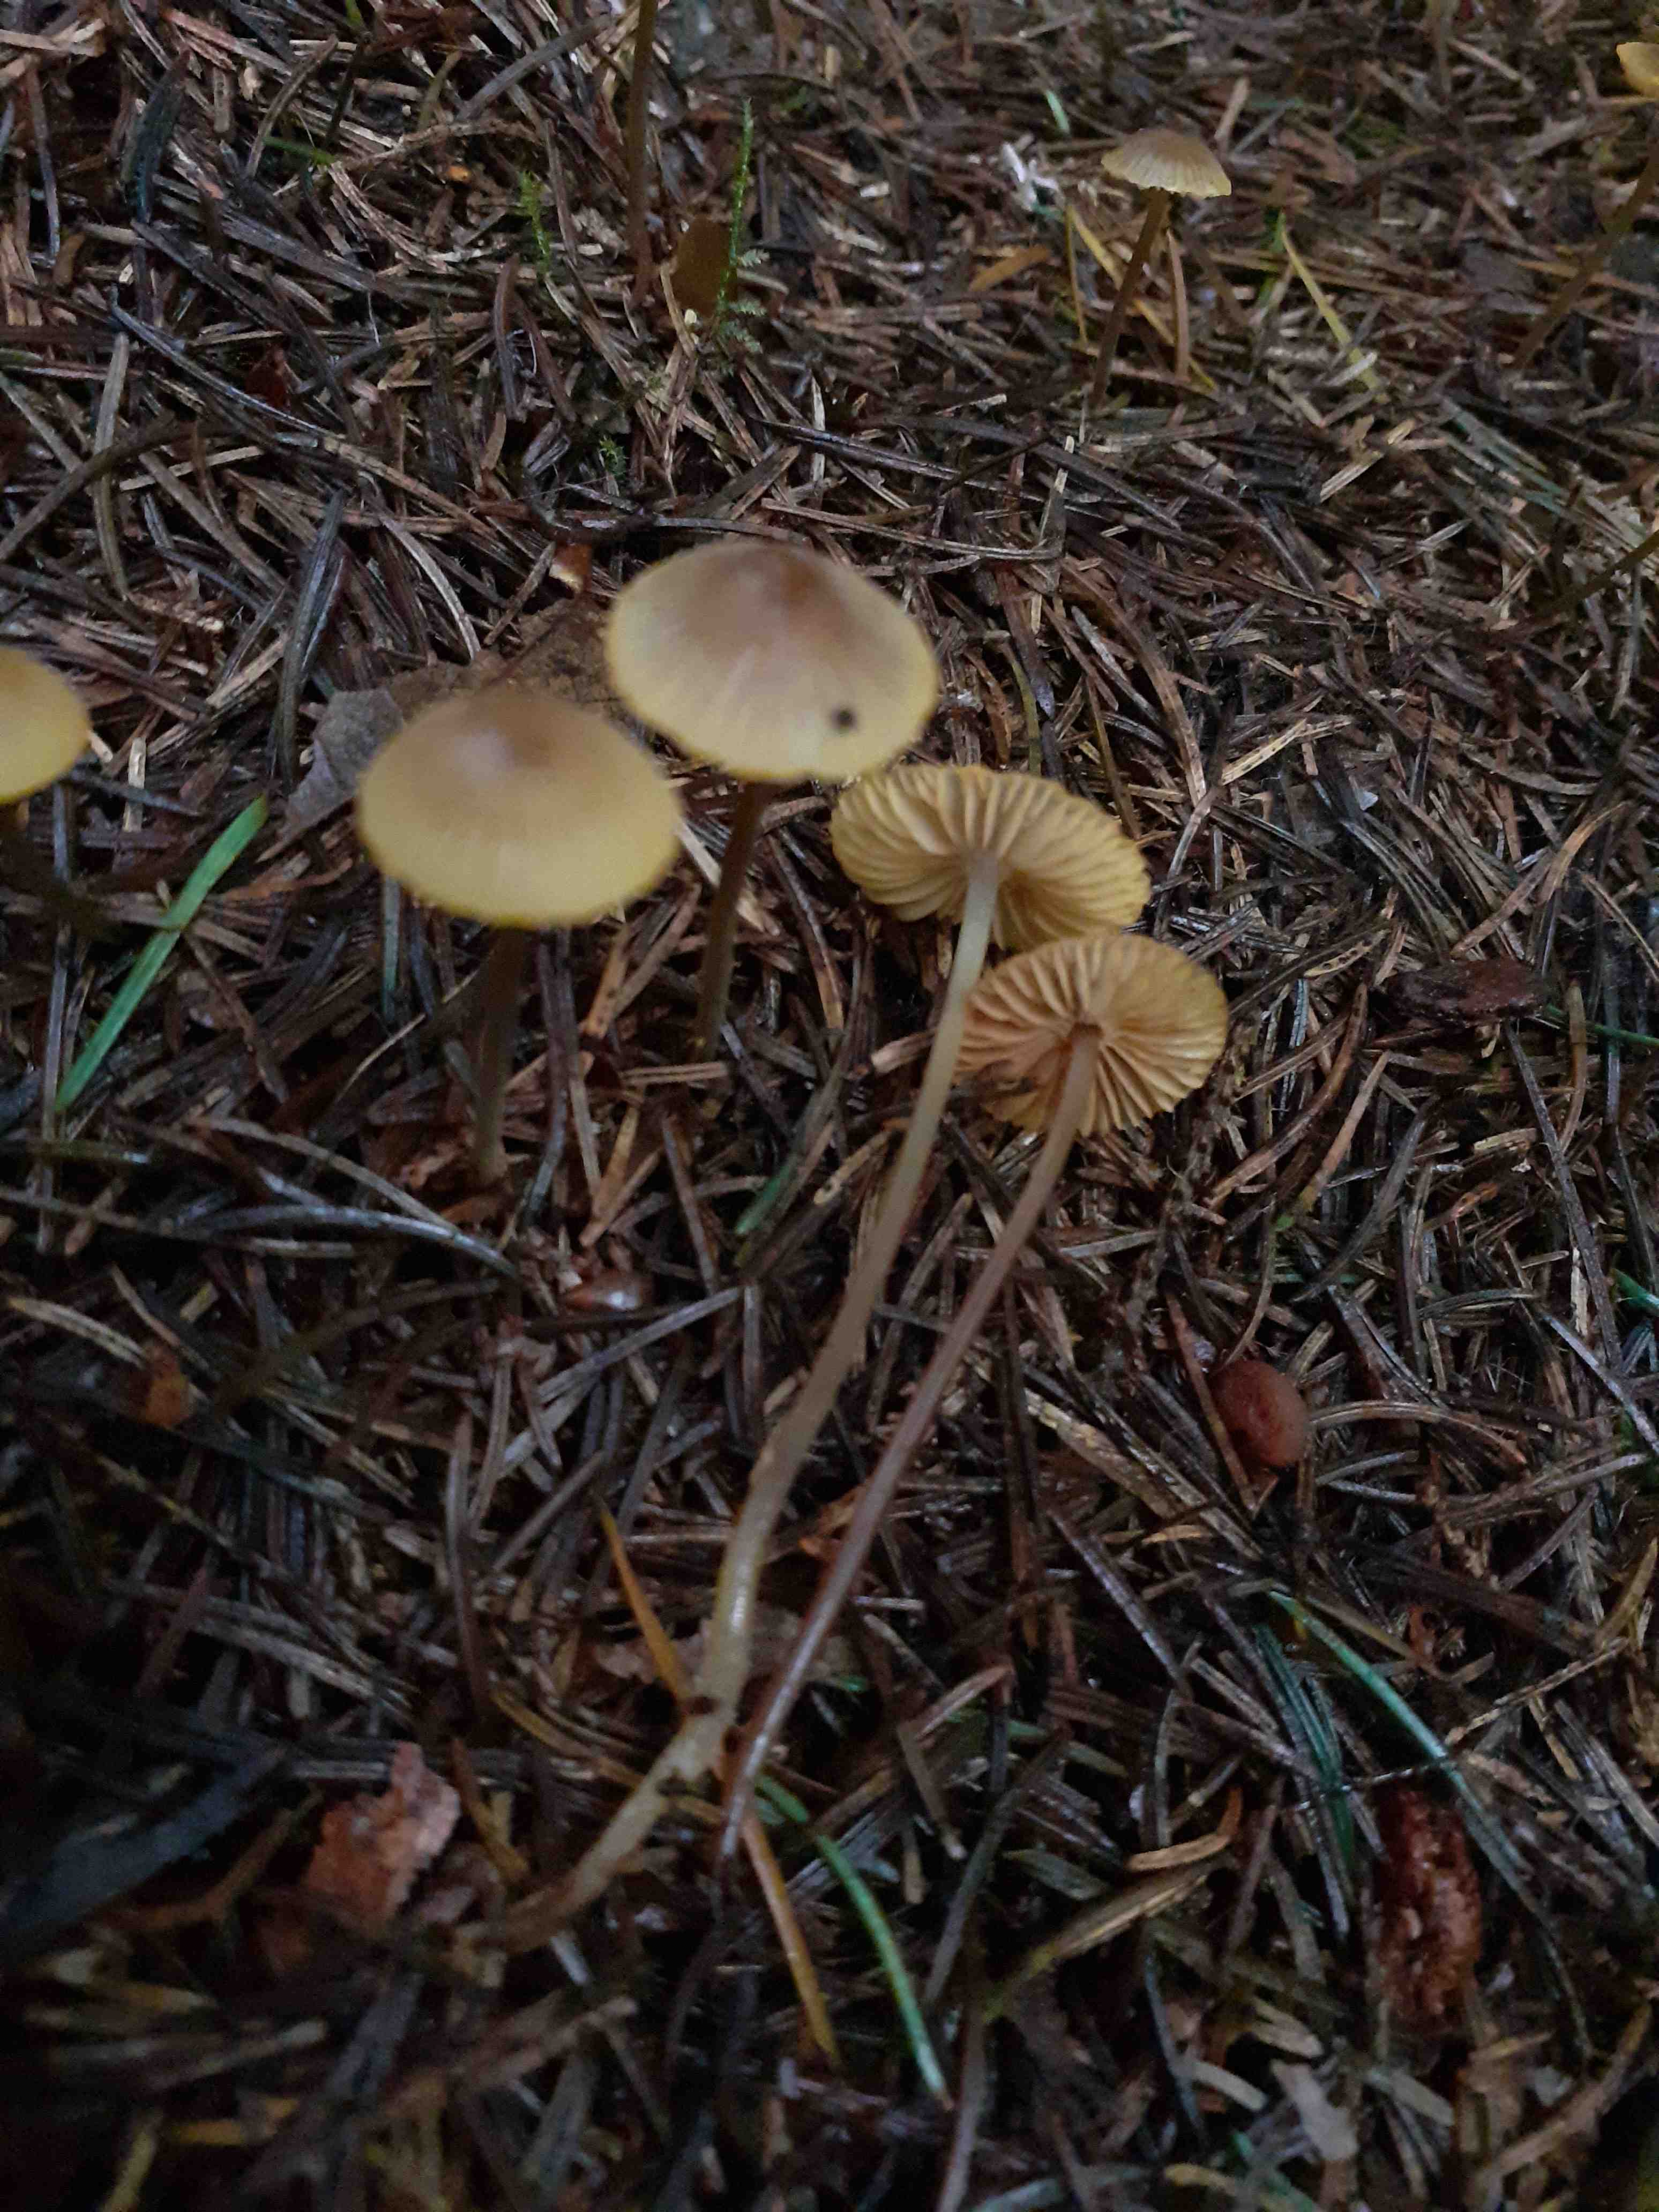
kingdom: Fungi
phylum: Basidiomycota
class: Agaricomycetes
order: Agaricales
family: Mycenaceae
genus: Mycena
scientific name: Mycena aurantiomarginata
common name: orangeægget huesvamp
